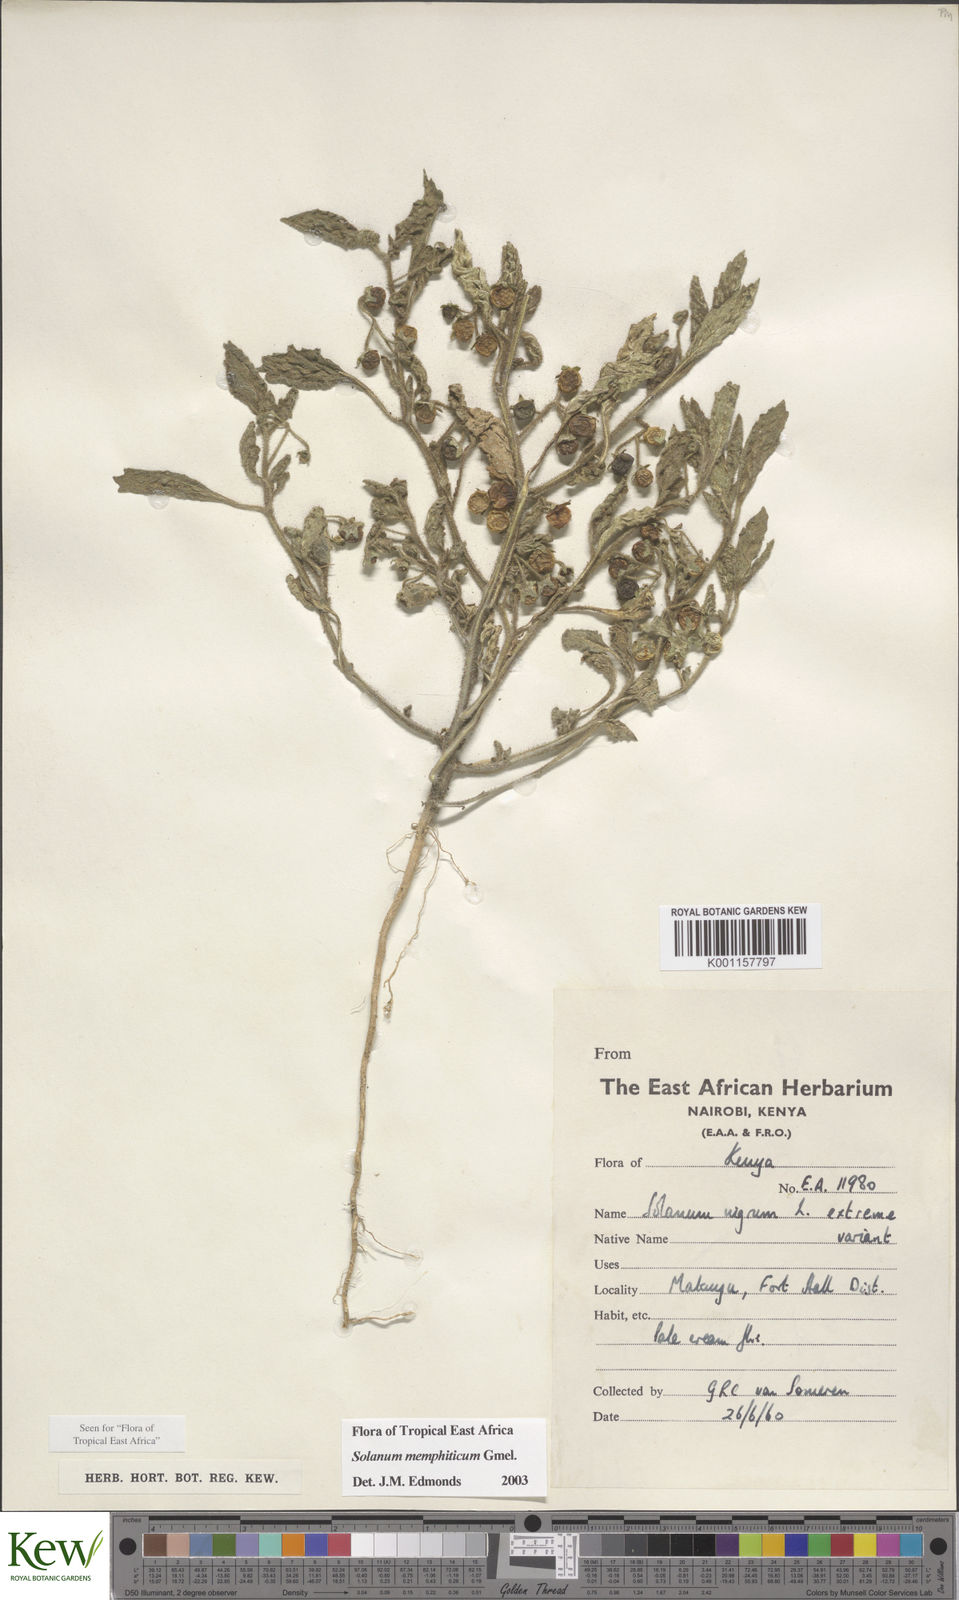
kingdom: Plantae
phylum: Tracheophyta
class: Magnoliopsida
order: Solanales
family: Solanaceae
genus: Solanum
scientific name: Solanum memphiticum
